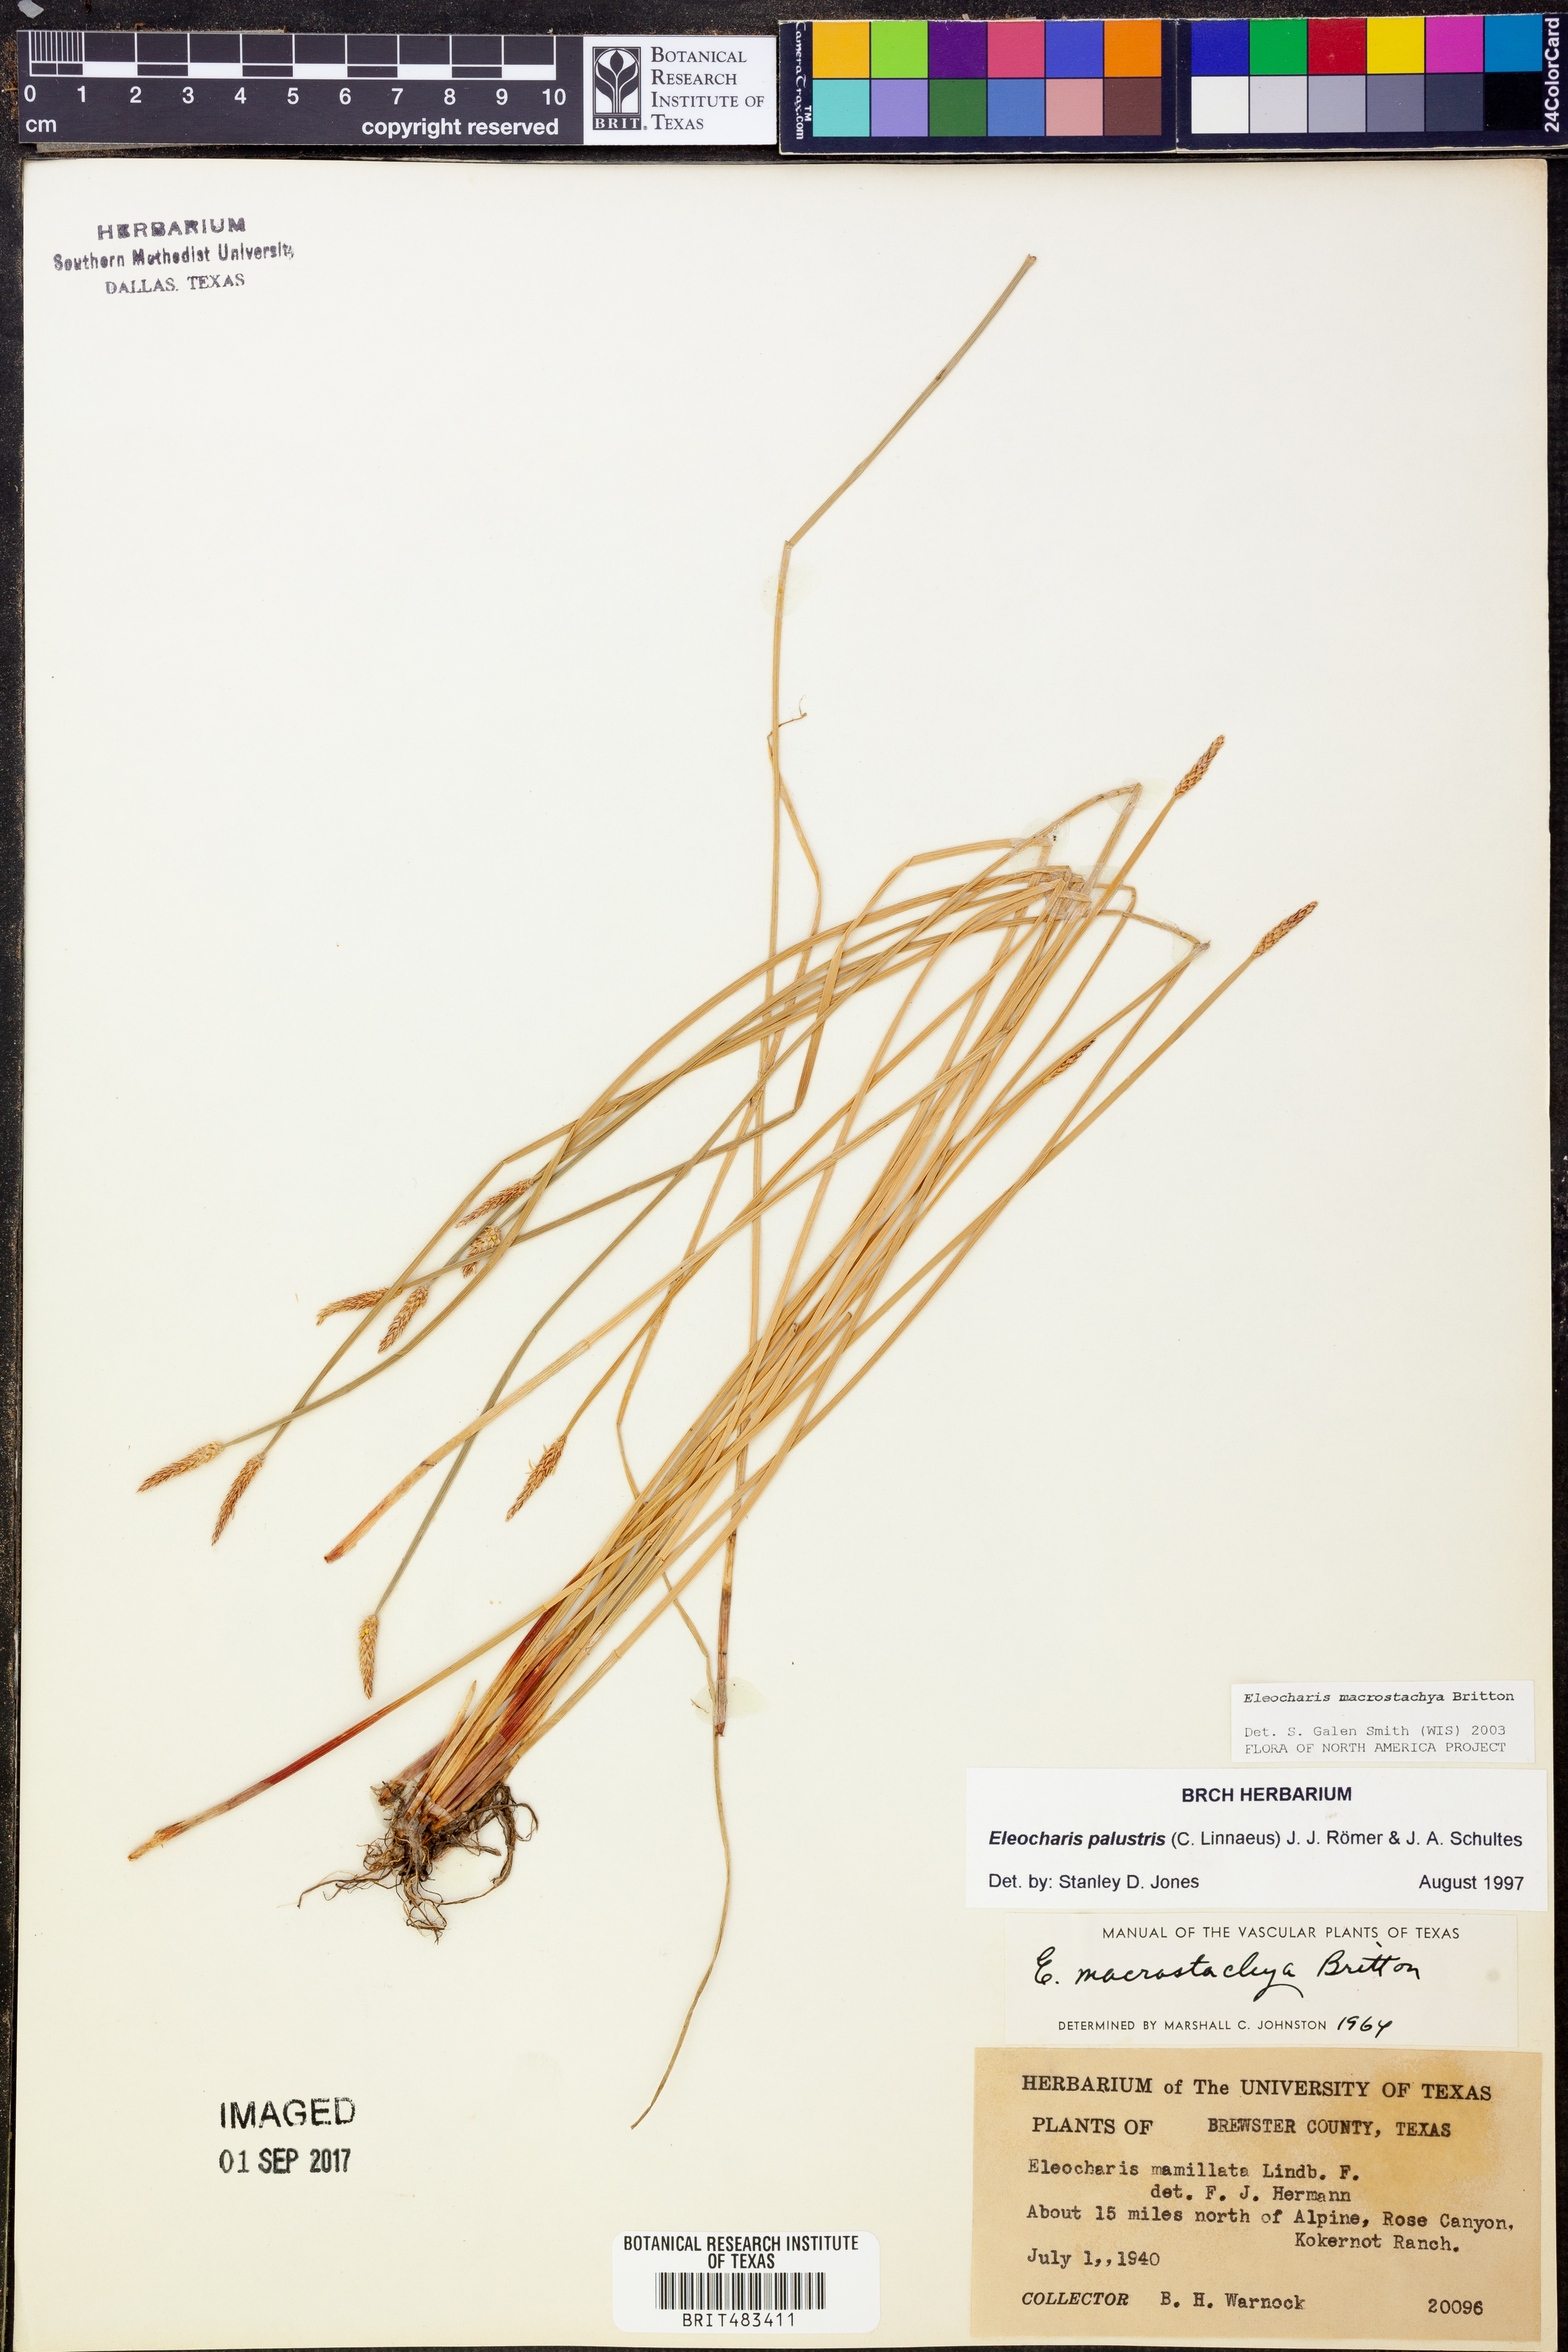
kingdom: Plantae
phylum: Tracheophyta
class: Liliopsida
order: Poales
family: Cyperaceae
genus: Eleocharis
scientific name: Eleocharis macrostachya
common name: Pale spikerush
